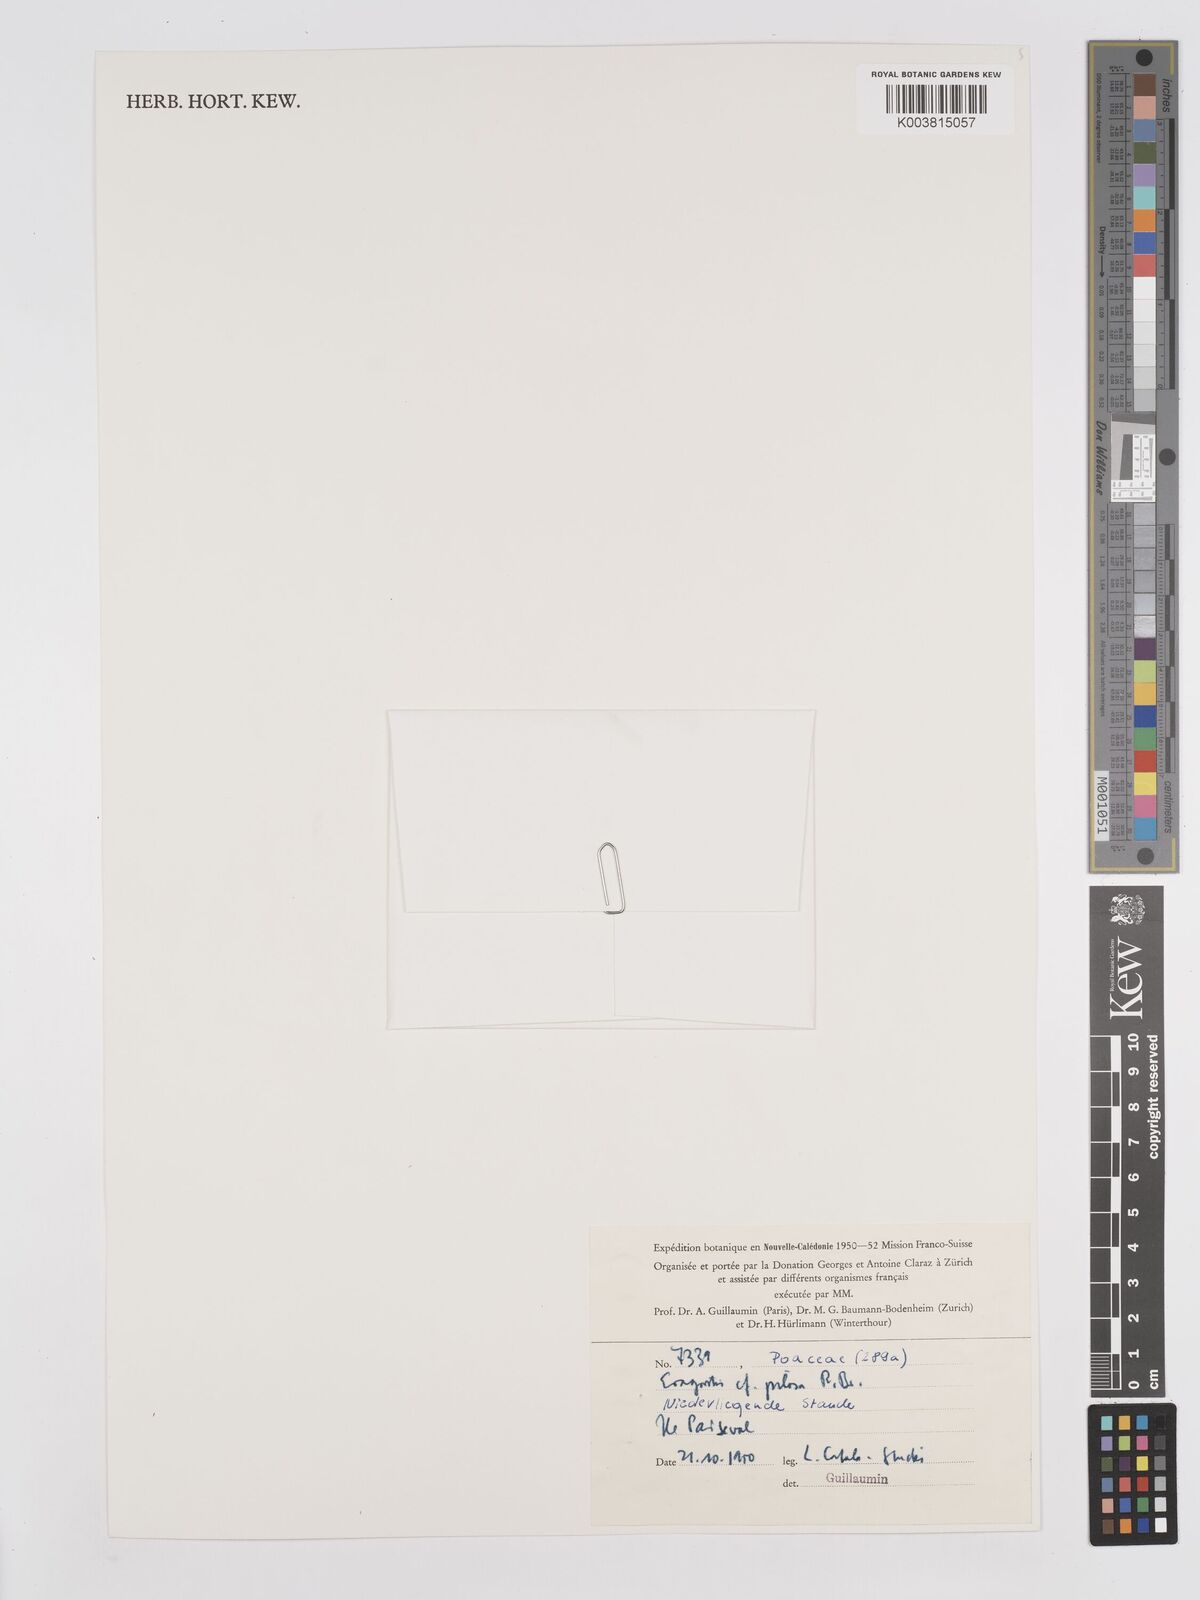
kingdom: Plantae
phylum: Tracheophyta
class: Liliopsida
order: Poales
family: Poaceae
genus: Eragrostis
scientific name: Eragrostis pilosa
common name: Indian lovegrass
